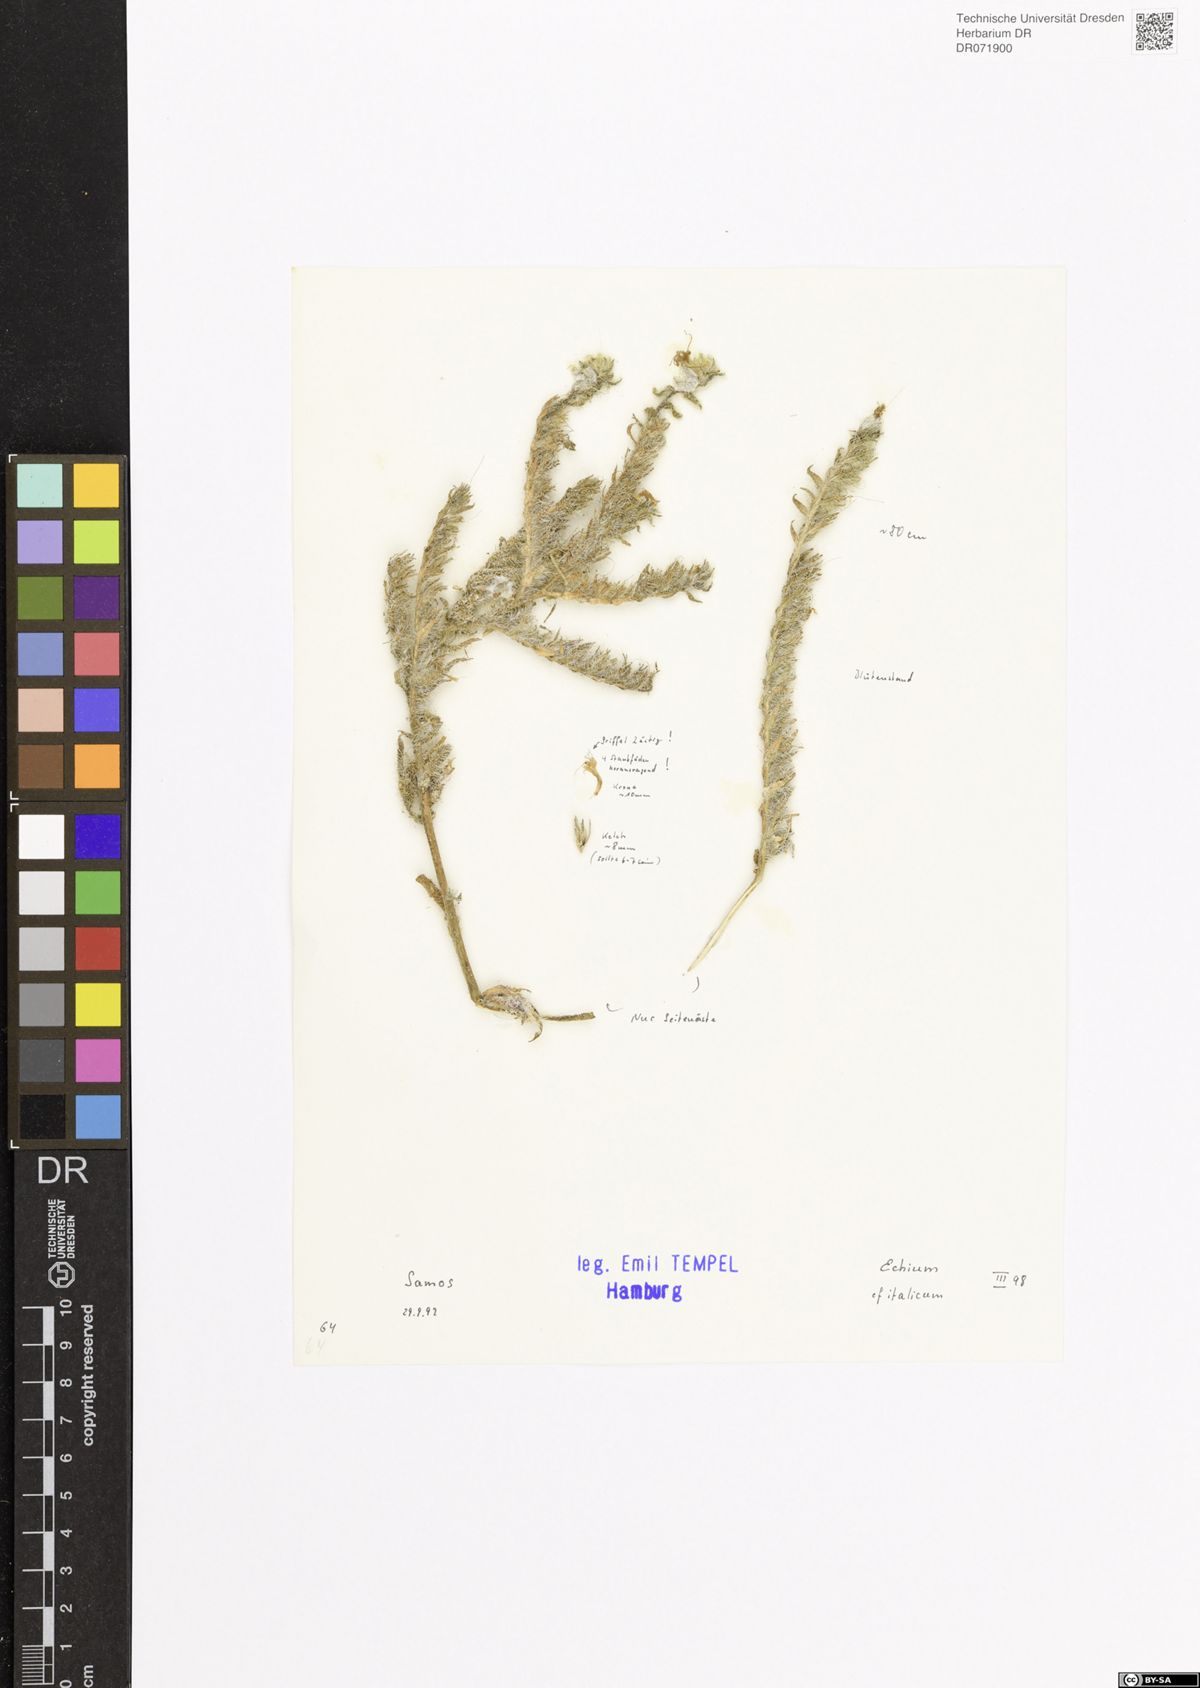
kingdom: Plantae
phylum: Tracheophyta
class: Magnoliopsida
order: Boraginales
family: Boraginaceae
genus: Echium
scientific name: Echium italicum
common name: Italian viper's bugloss
